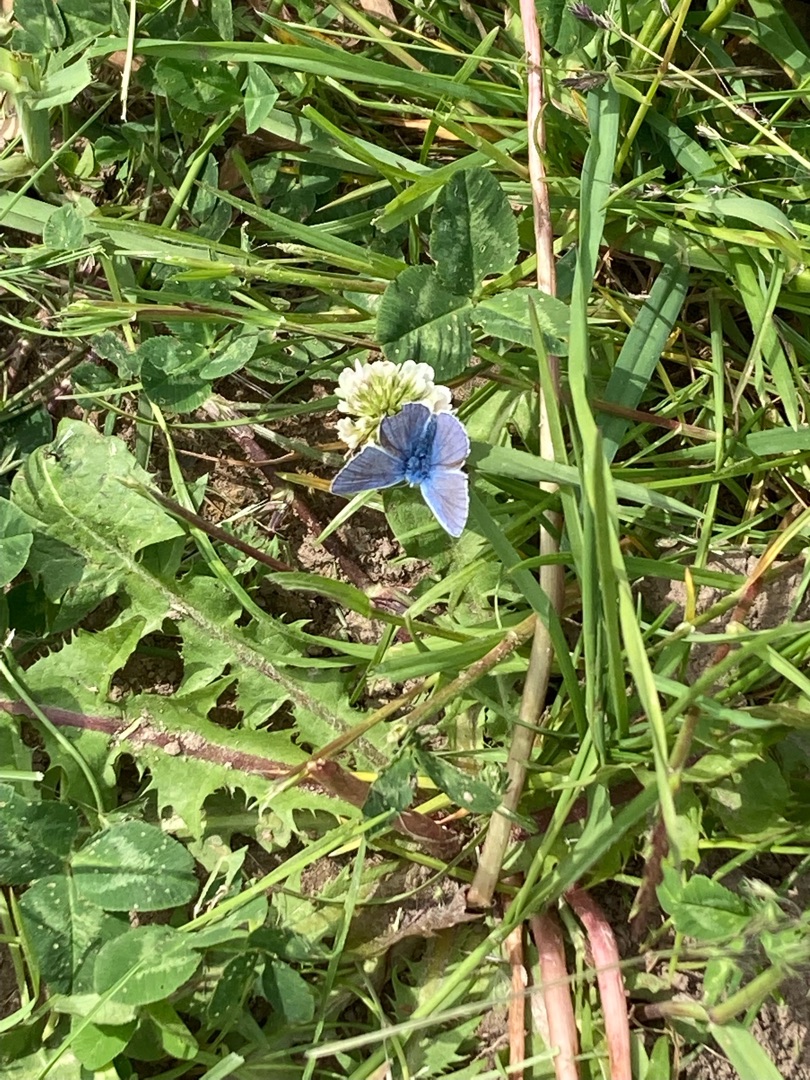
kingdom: Animalia
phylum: Arthropoda
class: Insecta
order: Lepidoptera
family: Lycaenidae
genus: Polyommatus
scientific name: Polyommatus icarus
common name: Almindelig blåfugl
